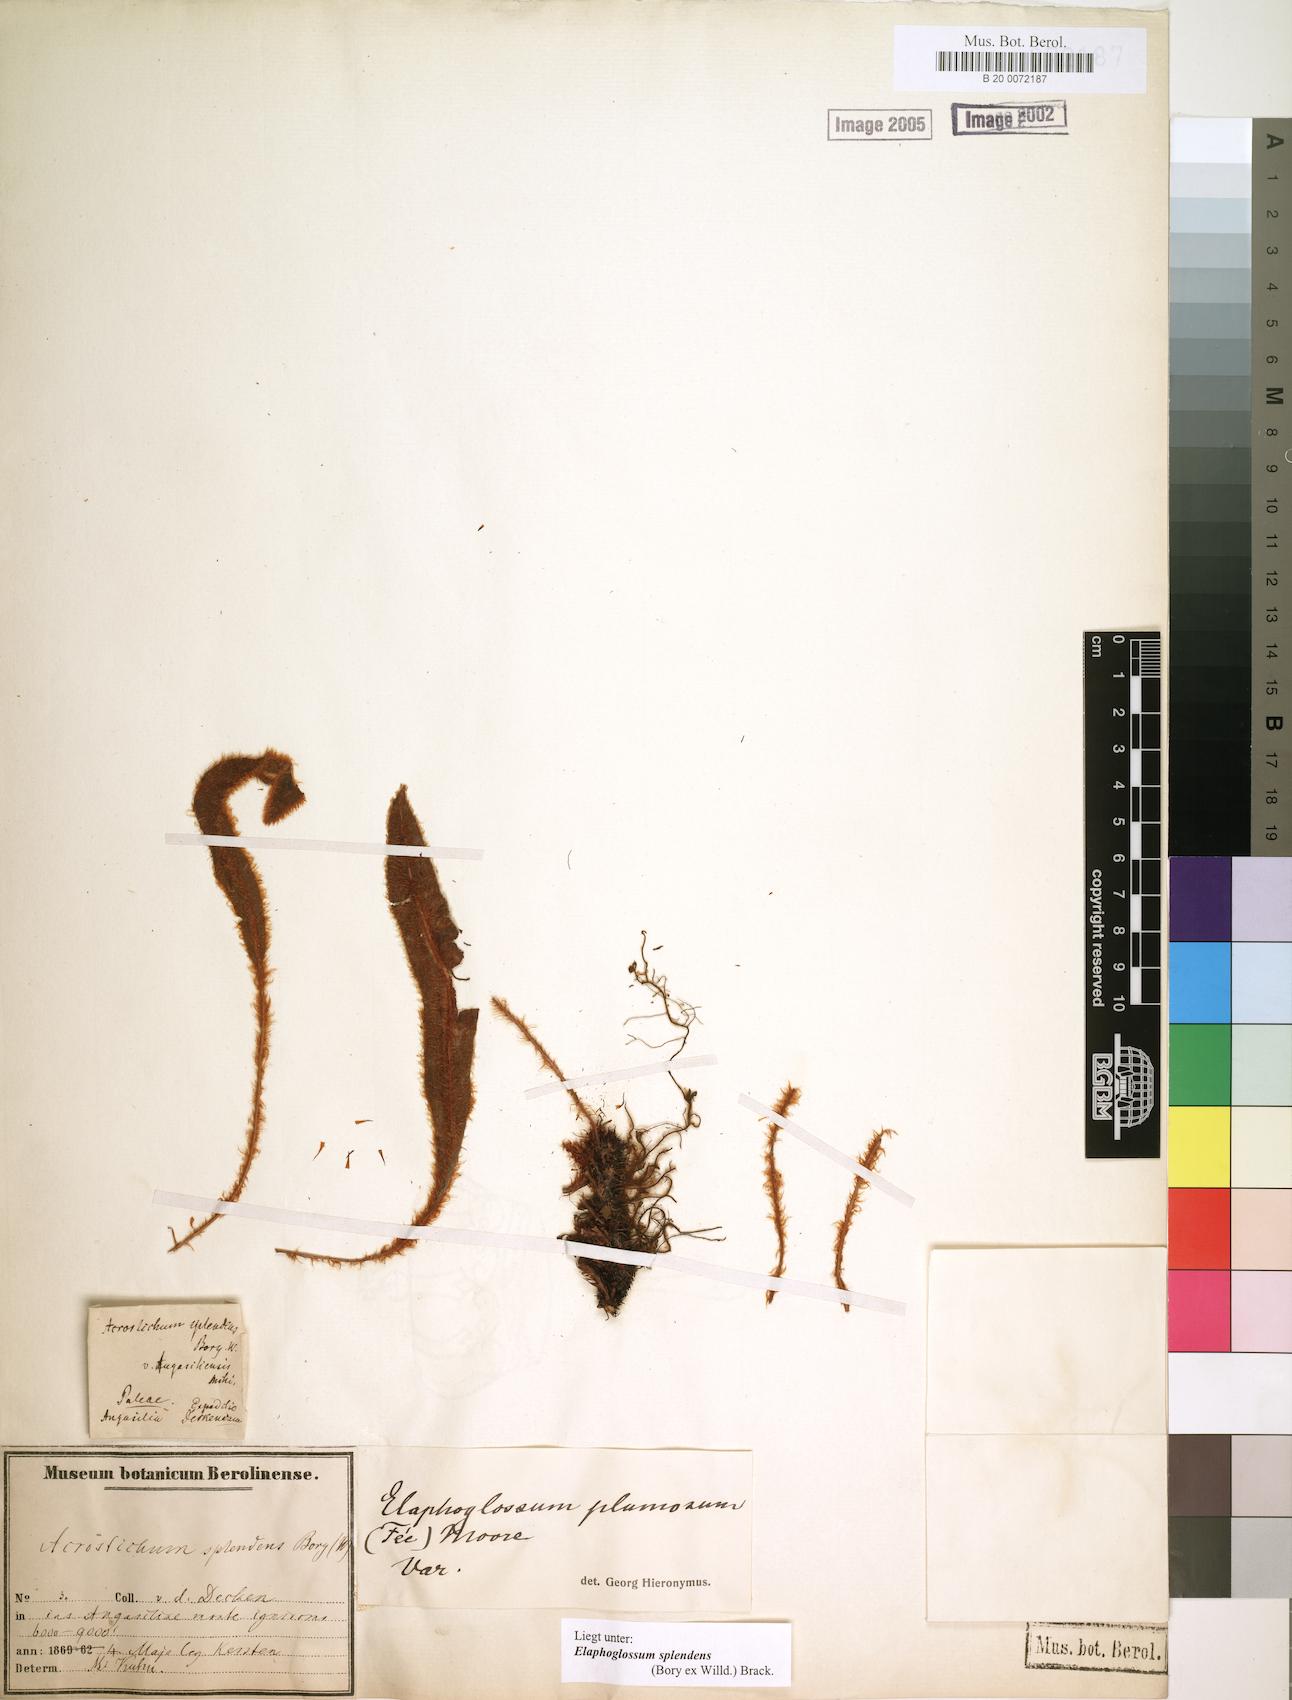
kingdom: Plantae
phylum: Tracheophyta
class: Polypodiopsida
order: Polypodiales
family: Dryopteridaceae
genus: Elaphoglossum
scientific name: Elaphoglossum splendens
